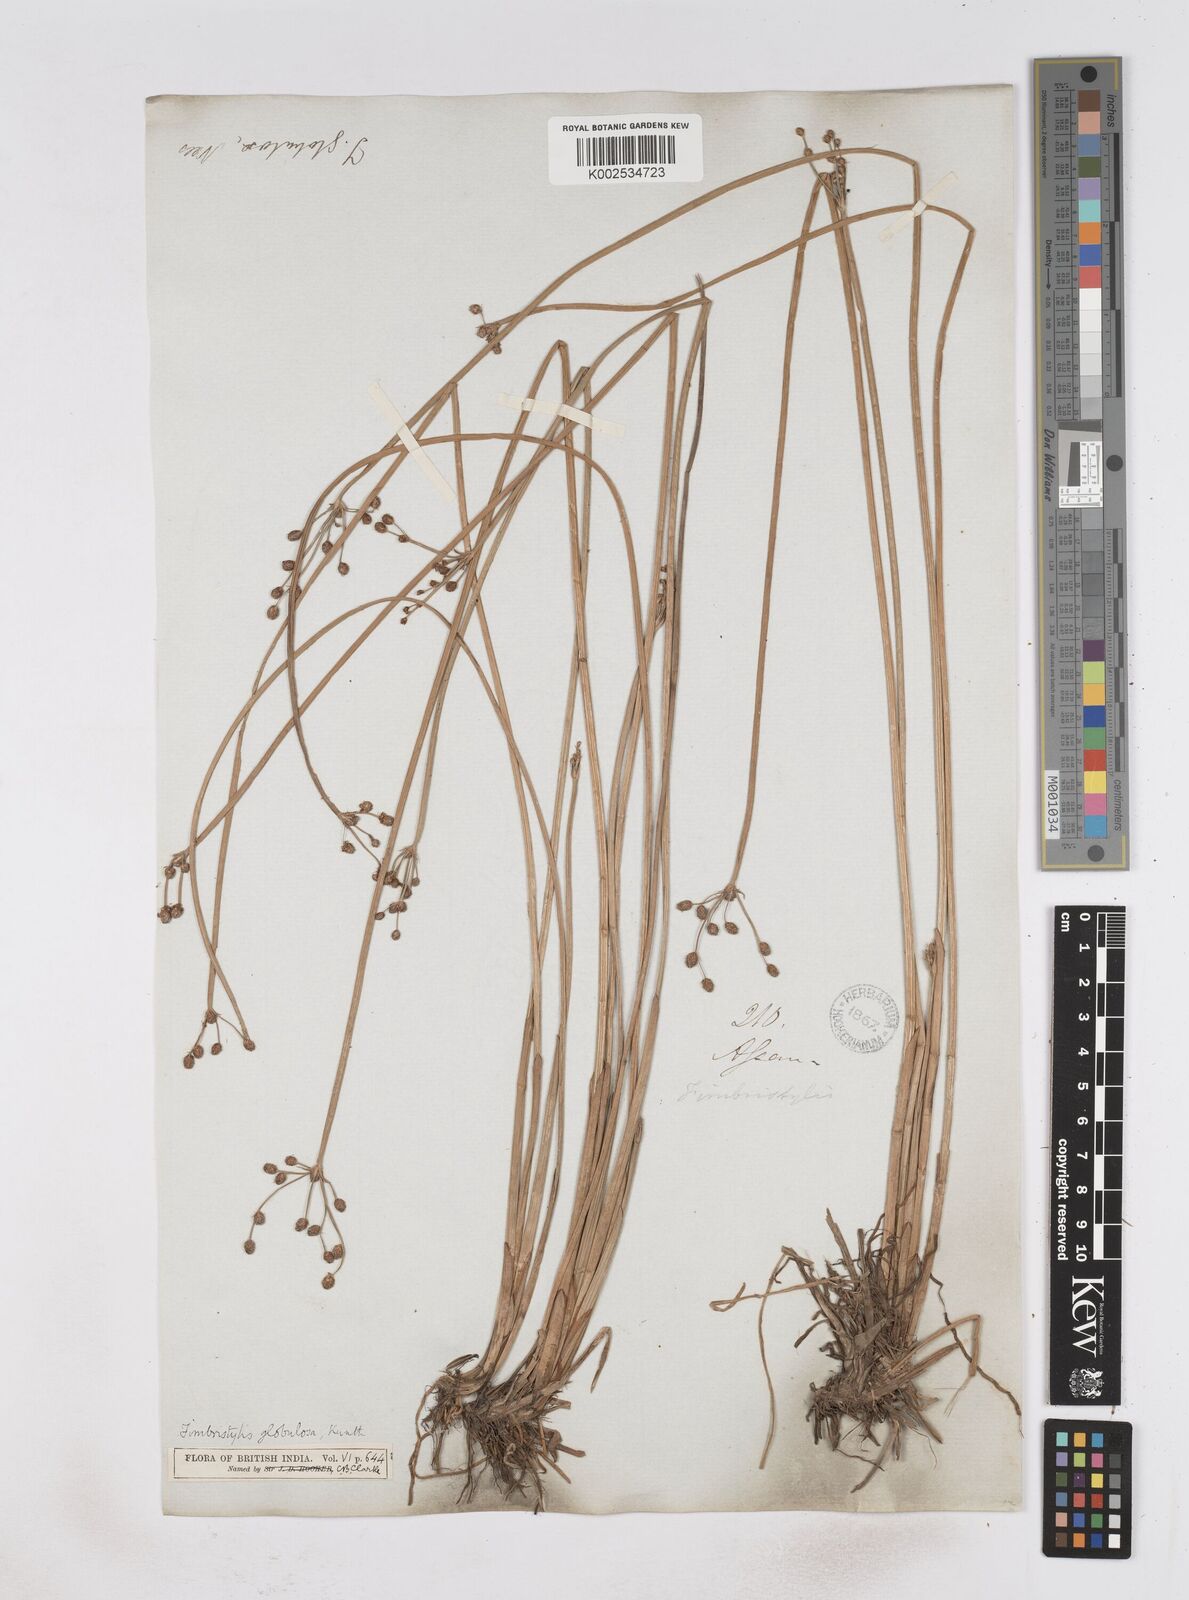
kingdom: Plantae
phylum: Tracheophyta
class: Liliopsida
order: Poales
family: Cyperaceae
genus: Fimbristylis
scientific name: Fimbristylis umbellaris
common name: Globular fimbristylis
